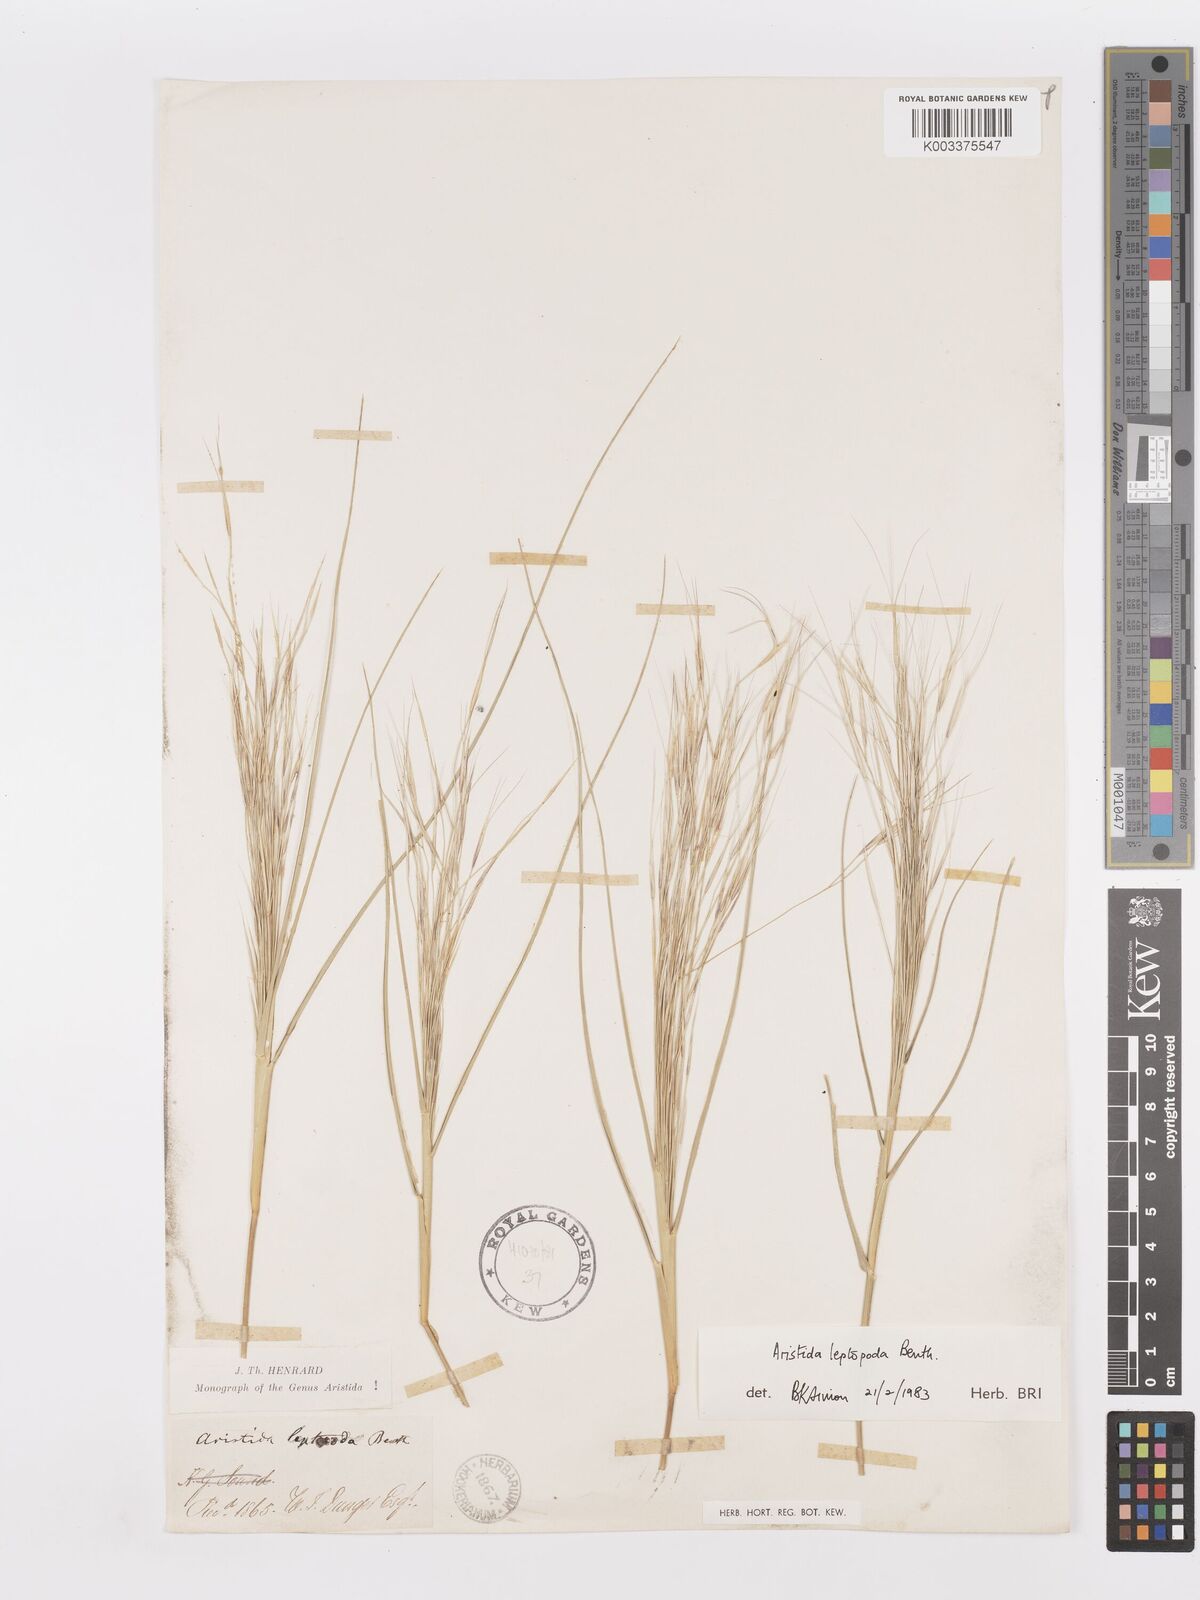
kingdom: Plantae
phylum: Tracheophyta
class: Liliopsida
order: Poales
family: Poaceae
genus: Aristida
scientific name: Aristida leptopoda
